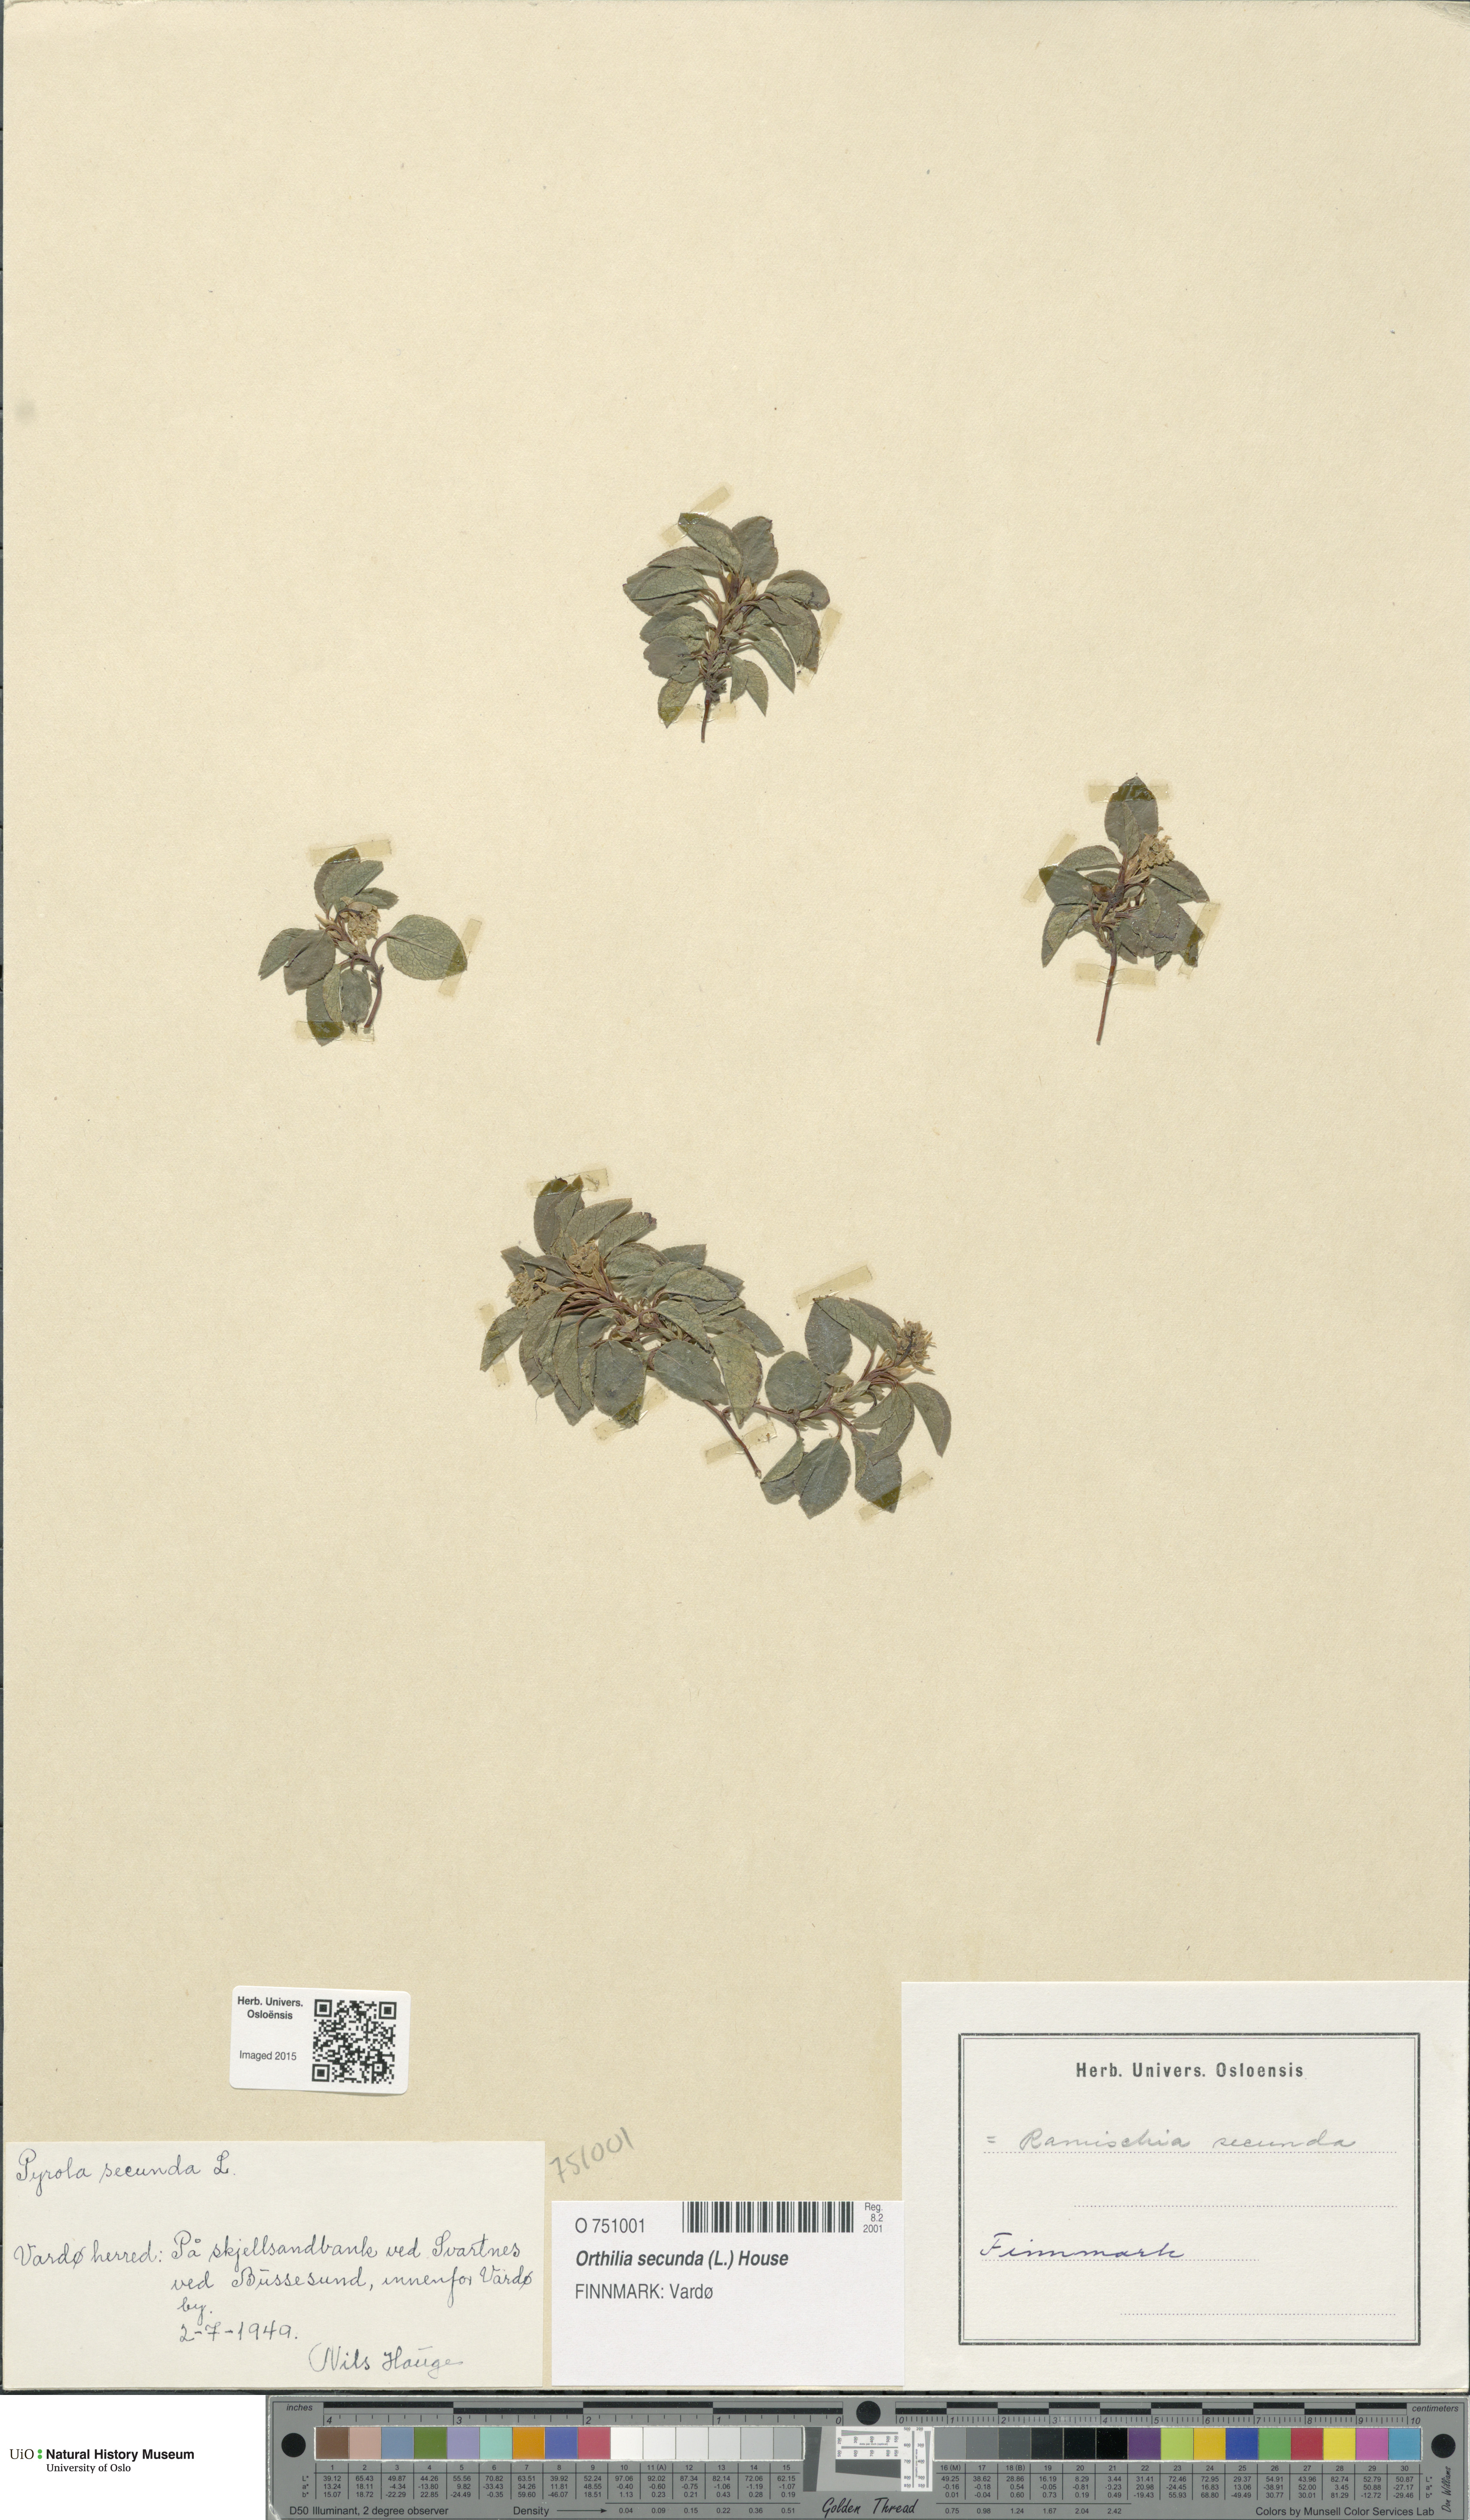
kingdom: Plantae
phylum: Tracheophyta
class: Magnoliopsida
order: Ericales
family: Ericaceae
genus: Orthilia
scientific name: Orthilia secunda
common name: One-sided orthilia
